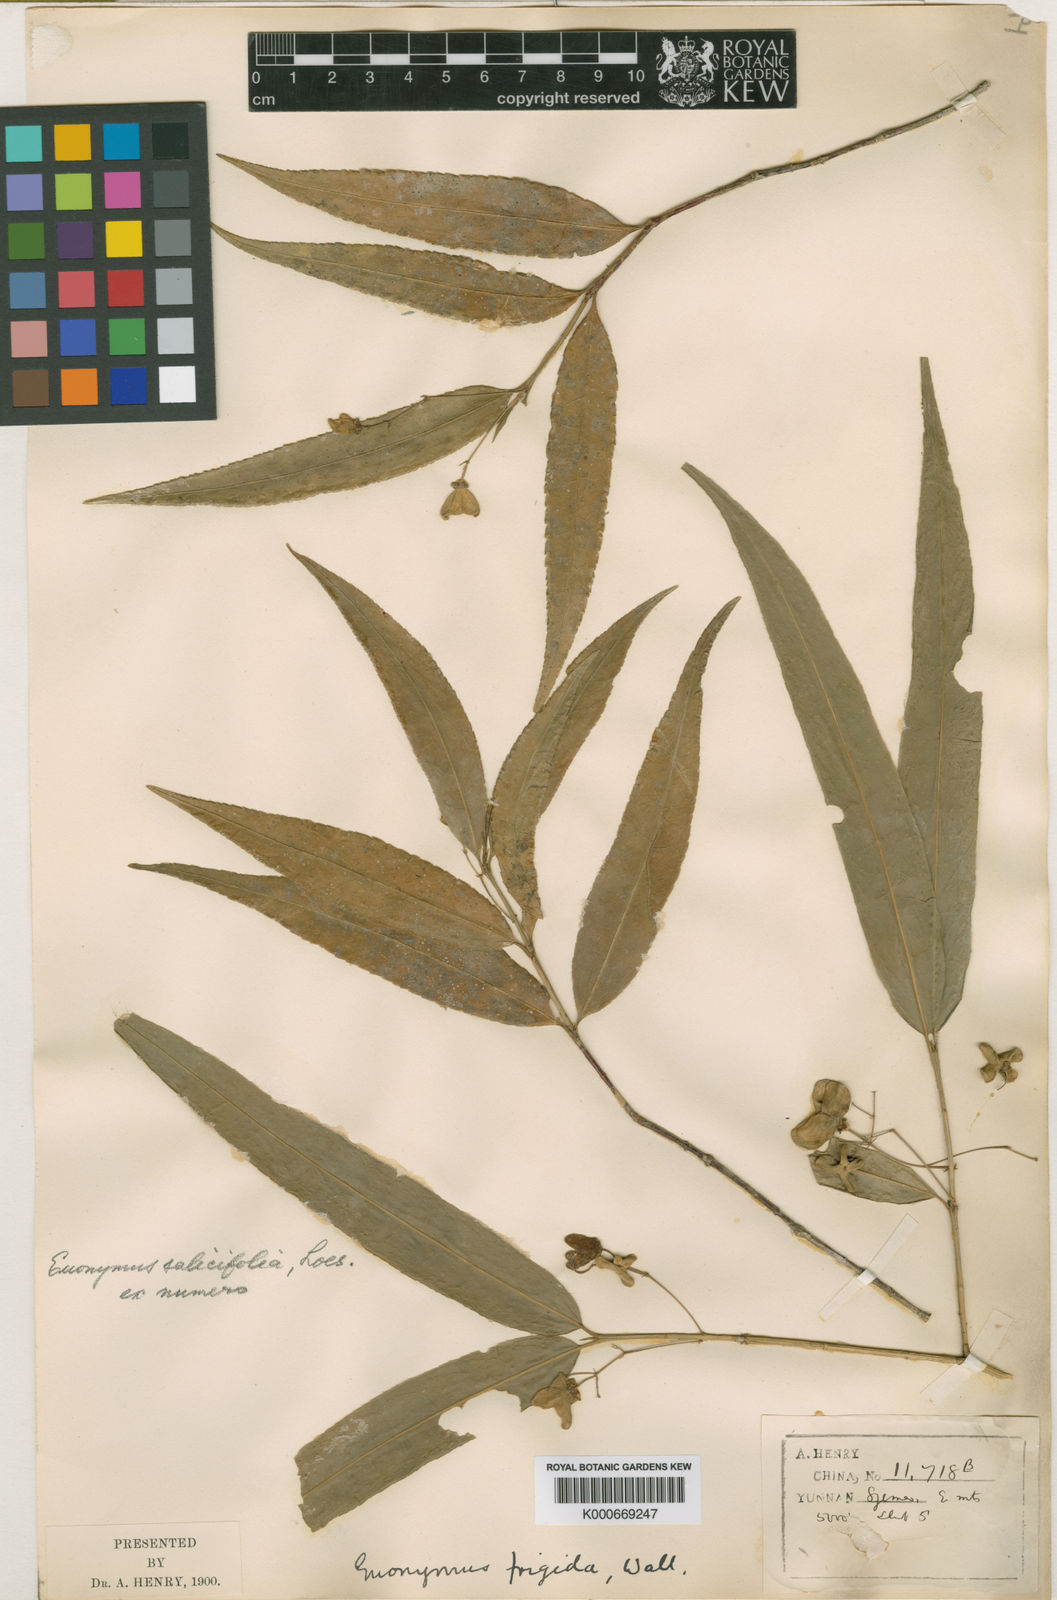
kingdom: Plantae
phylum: Tracheophyta
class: Magnoliopsida
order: Celastrales
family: Celastraceae
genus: Euonymus
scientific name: Euonymus lawsonii
